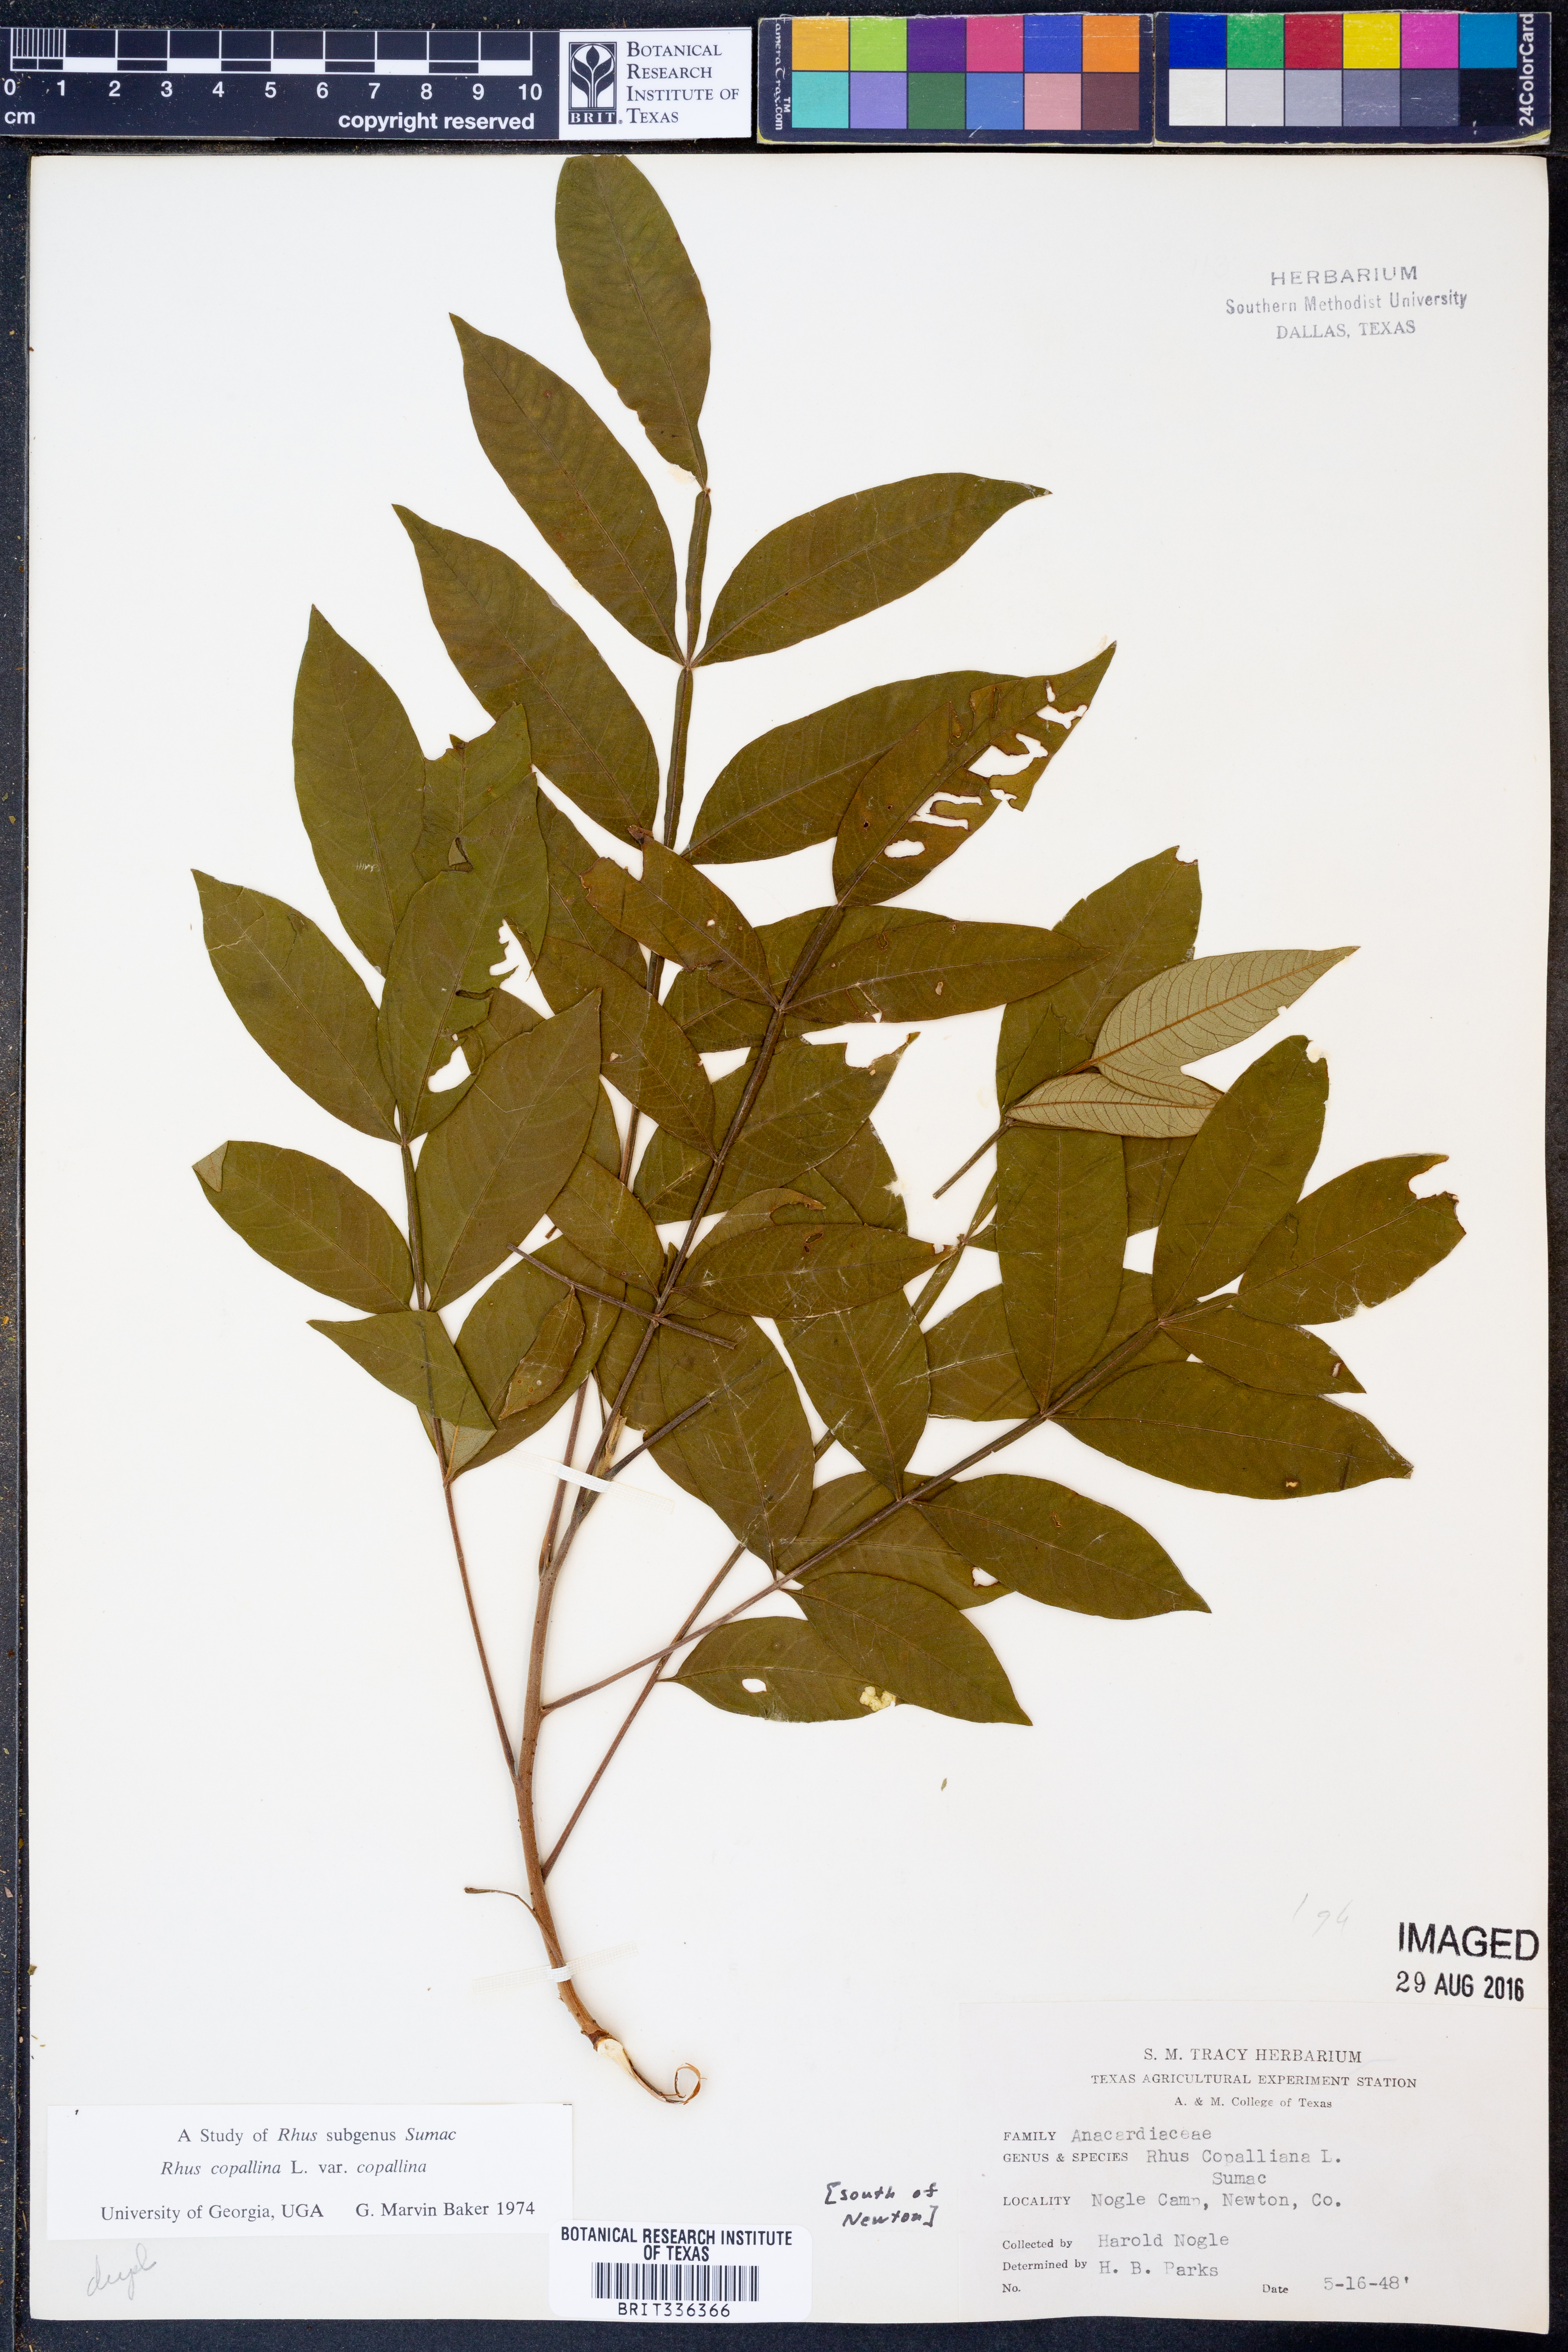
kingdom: Plantae
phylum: Tracheophyta
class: Magnoliopsida
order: Sapindales
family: Anacardiaceae
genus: Rhus
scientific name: Rhus copallina
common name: Shining sumac
